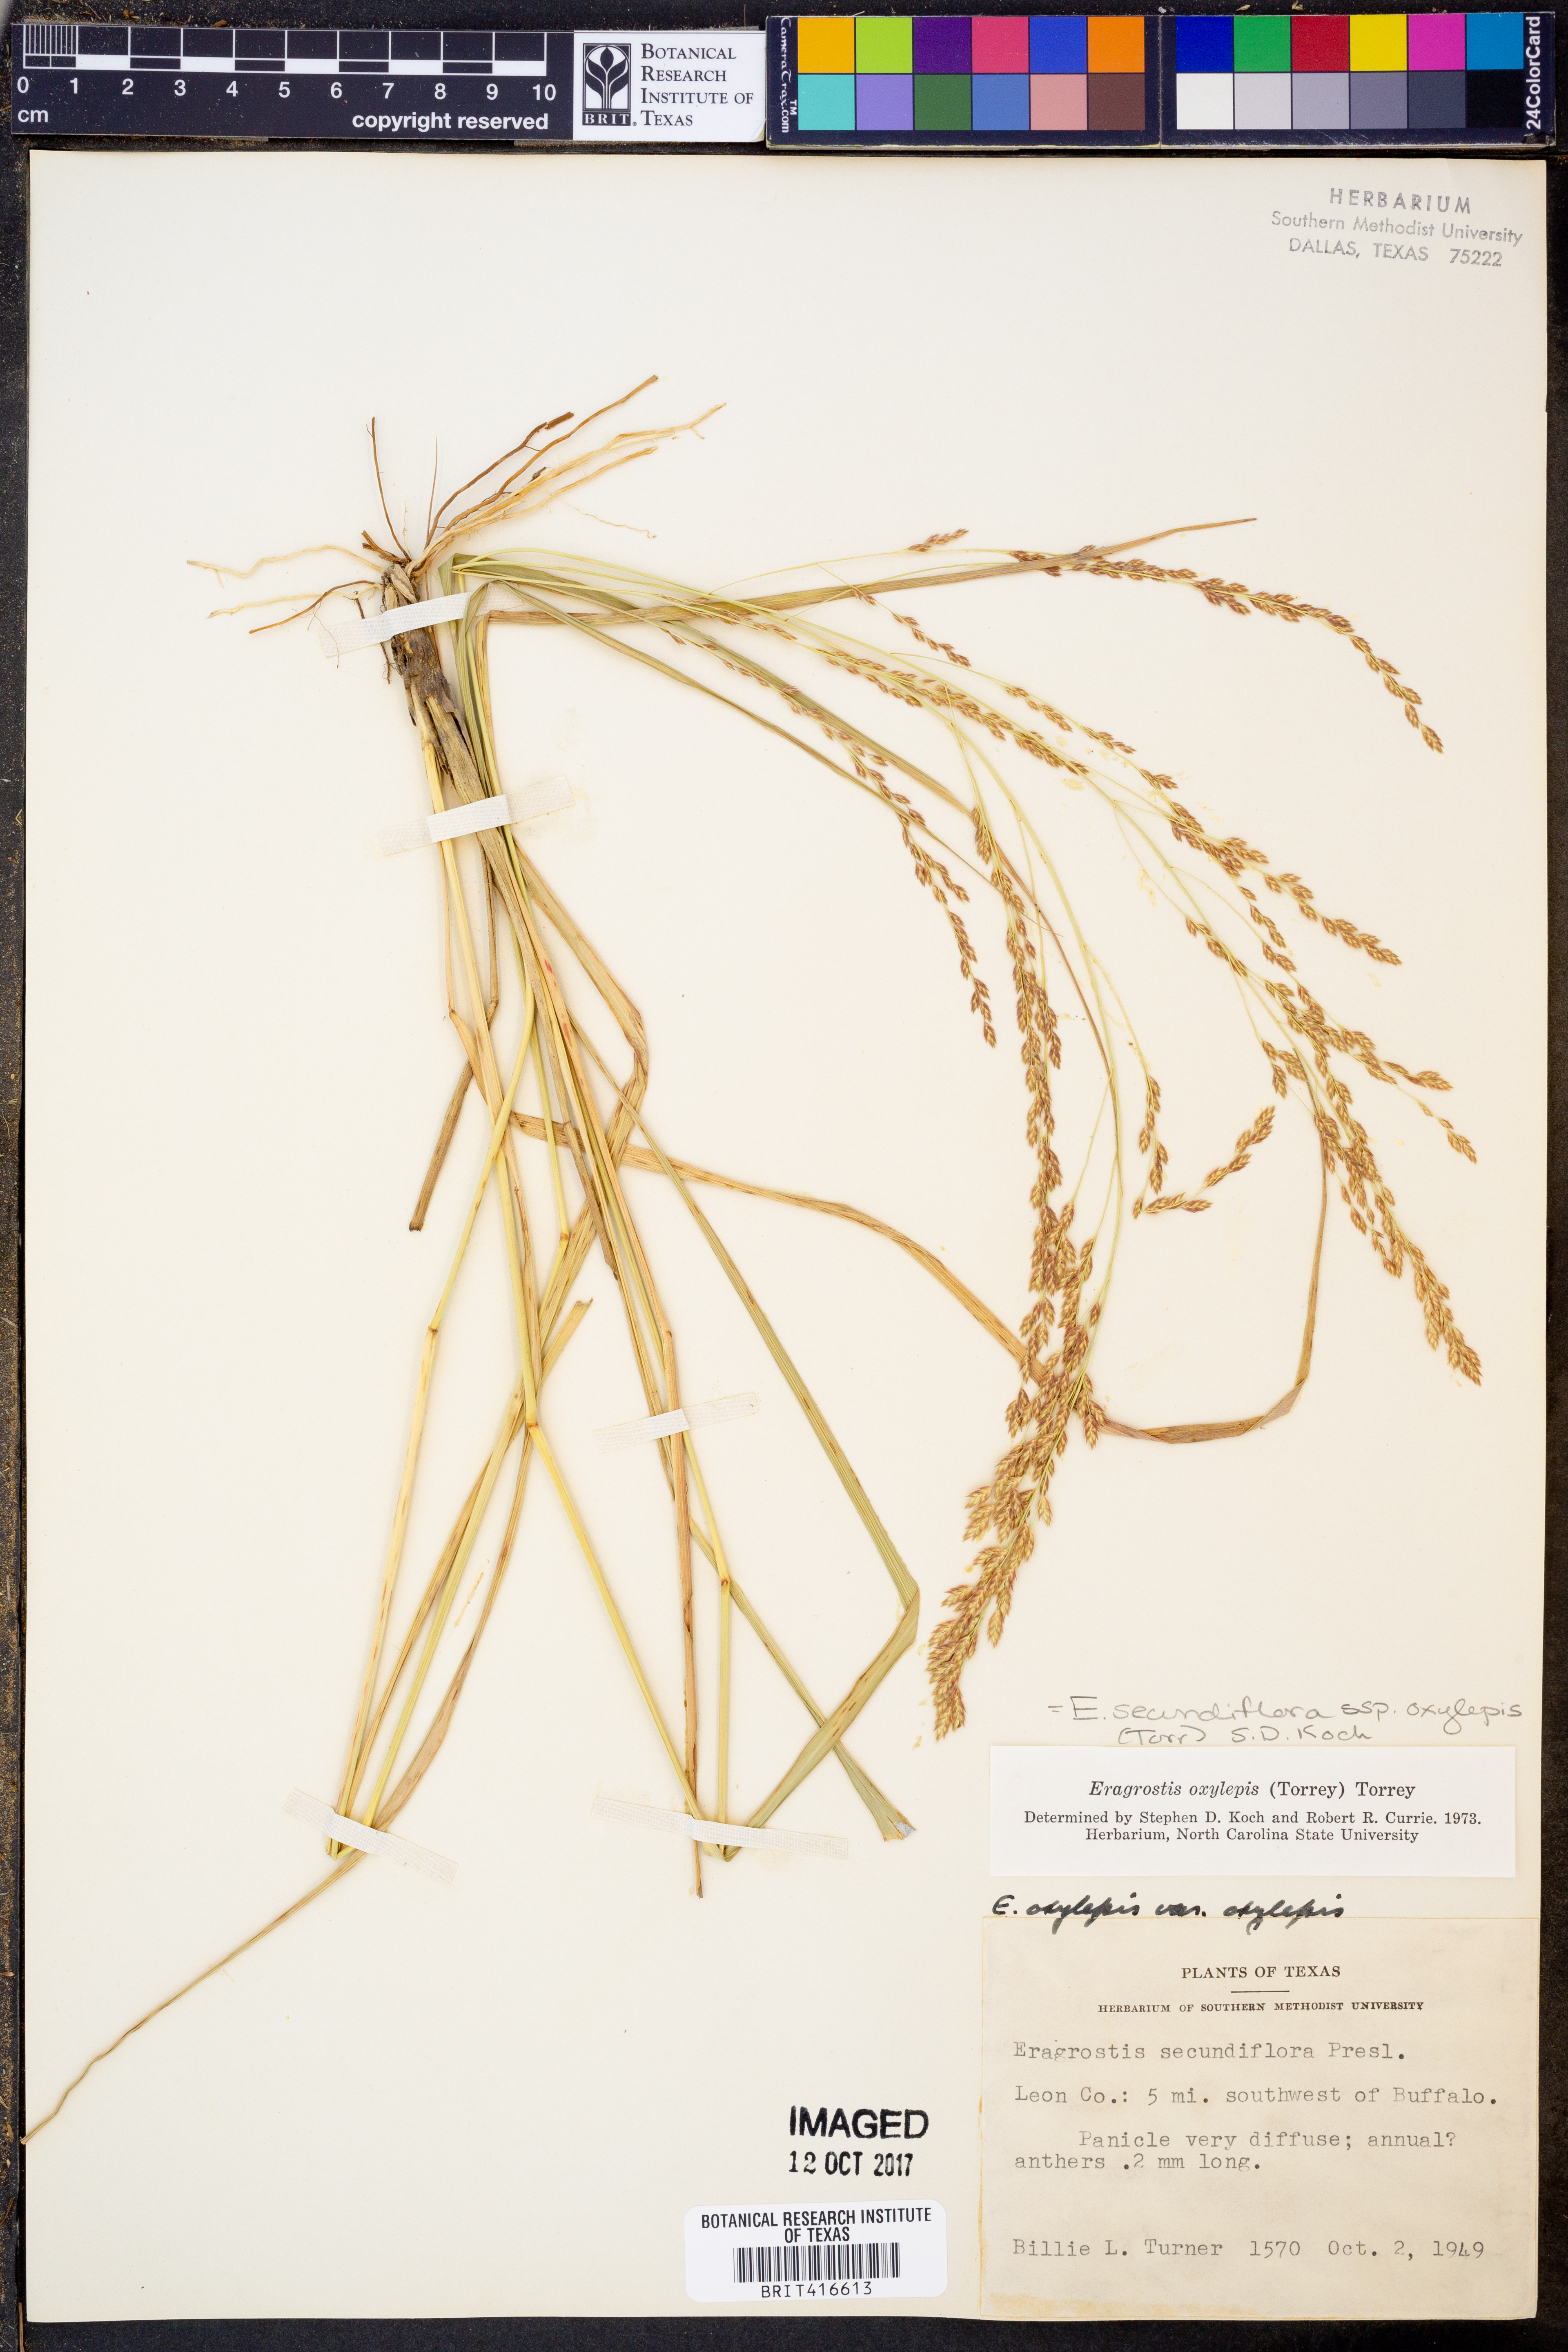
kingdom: Plantae
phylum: Tracheophyta
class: Liliopsida
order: Poales
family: Poaceae
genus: Eragrostis
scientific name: Eragrostis secundiflora
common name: Red love grass
